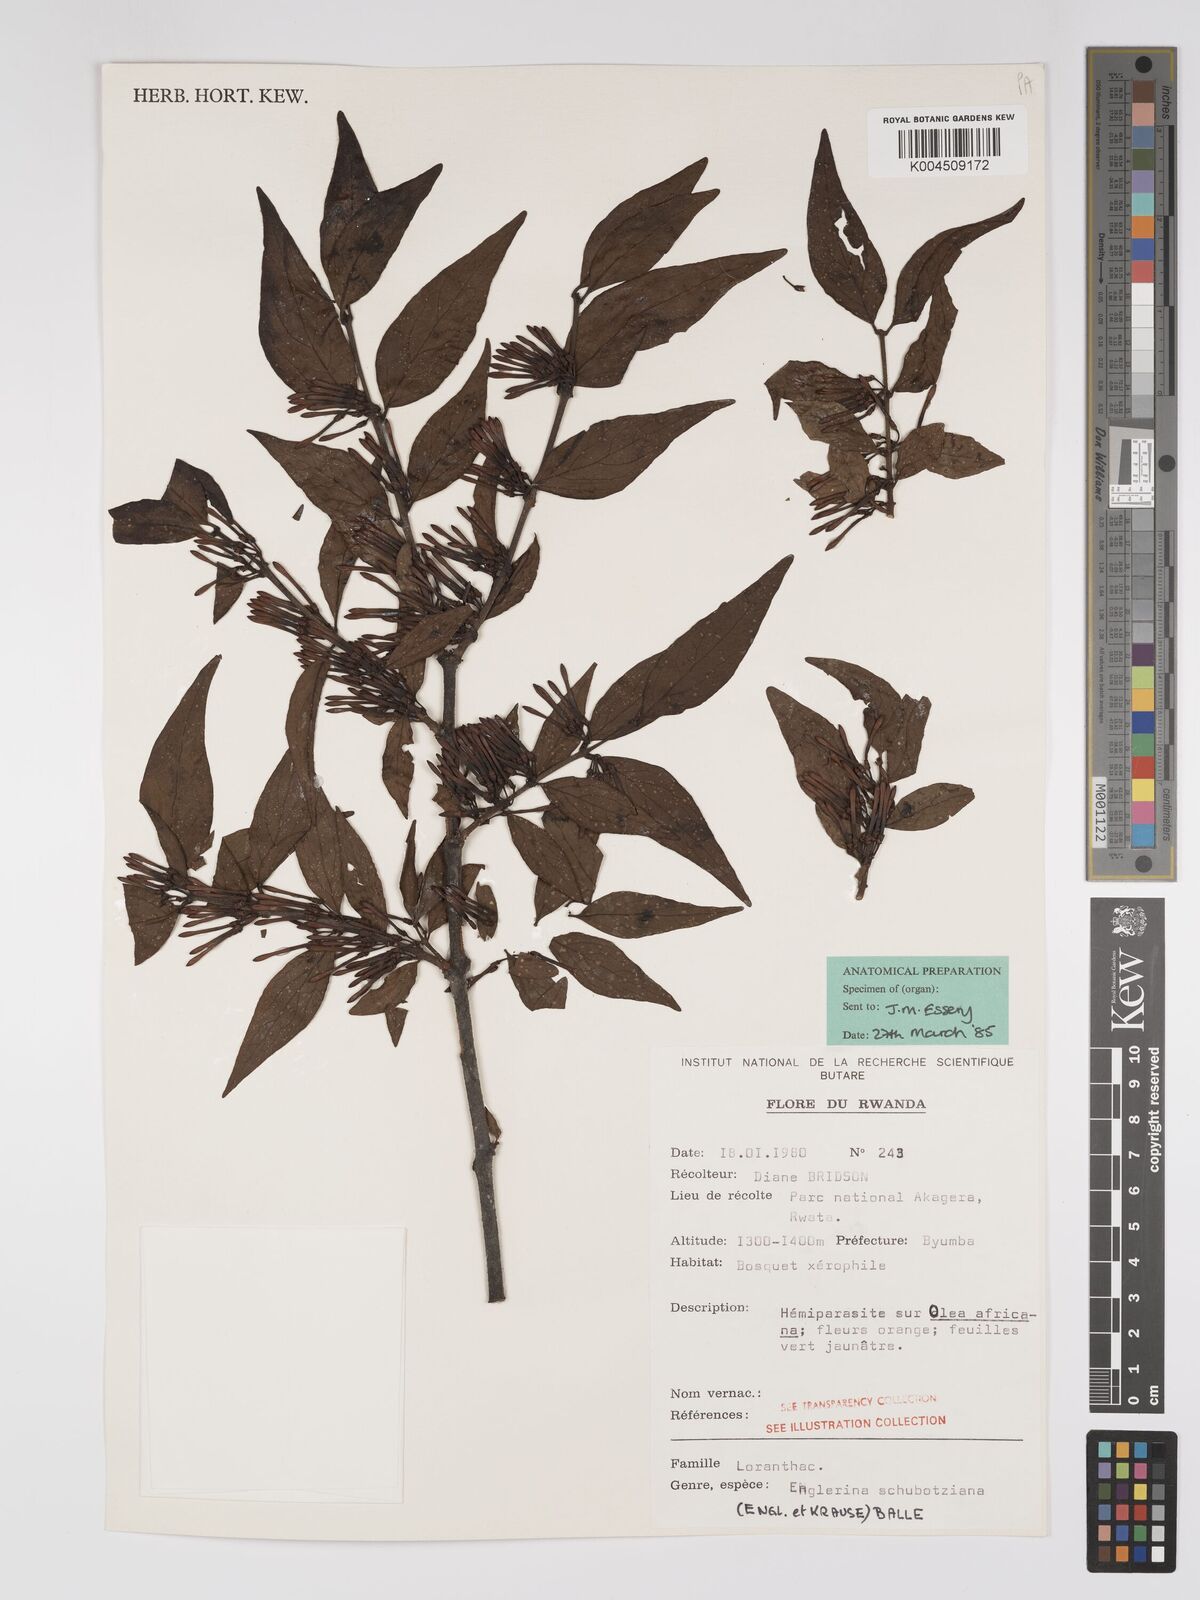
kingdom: Plantae
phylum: Tracheophyta
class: Magnoliopsida
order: Santalales
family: Loranthaceae
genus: Englerina
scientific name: Englerina schubotziana
